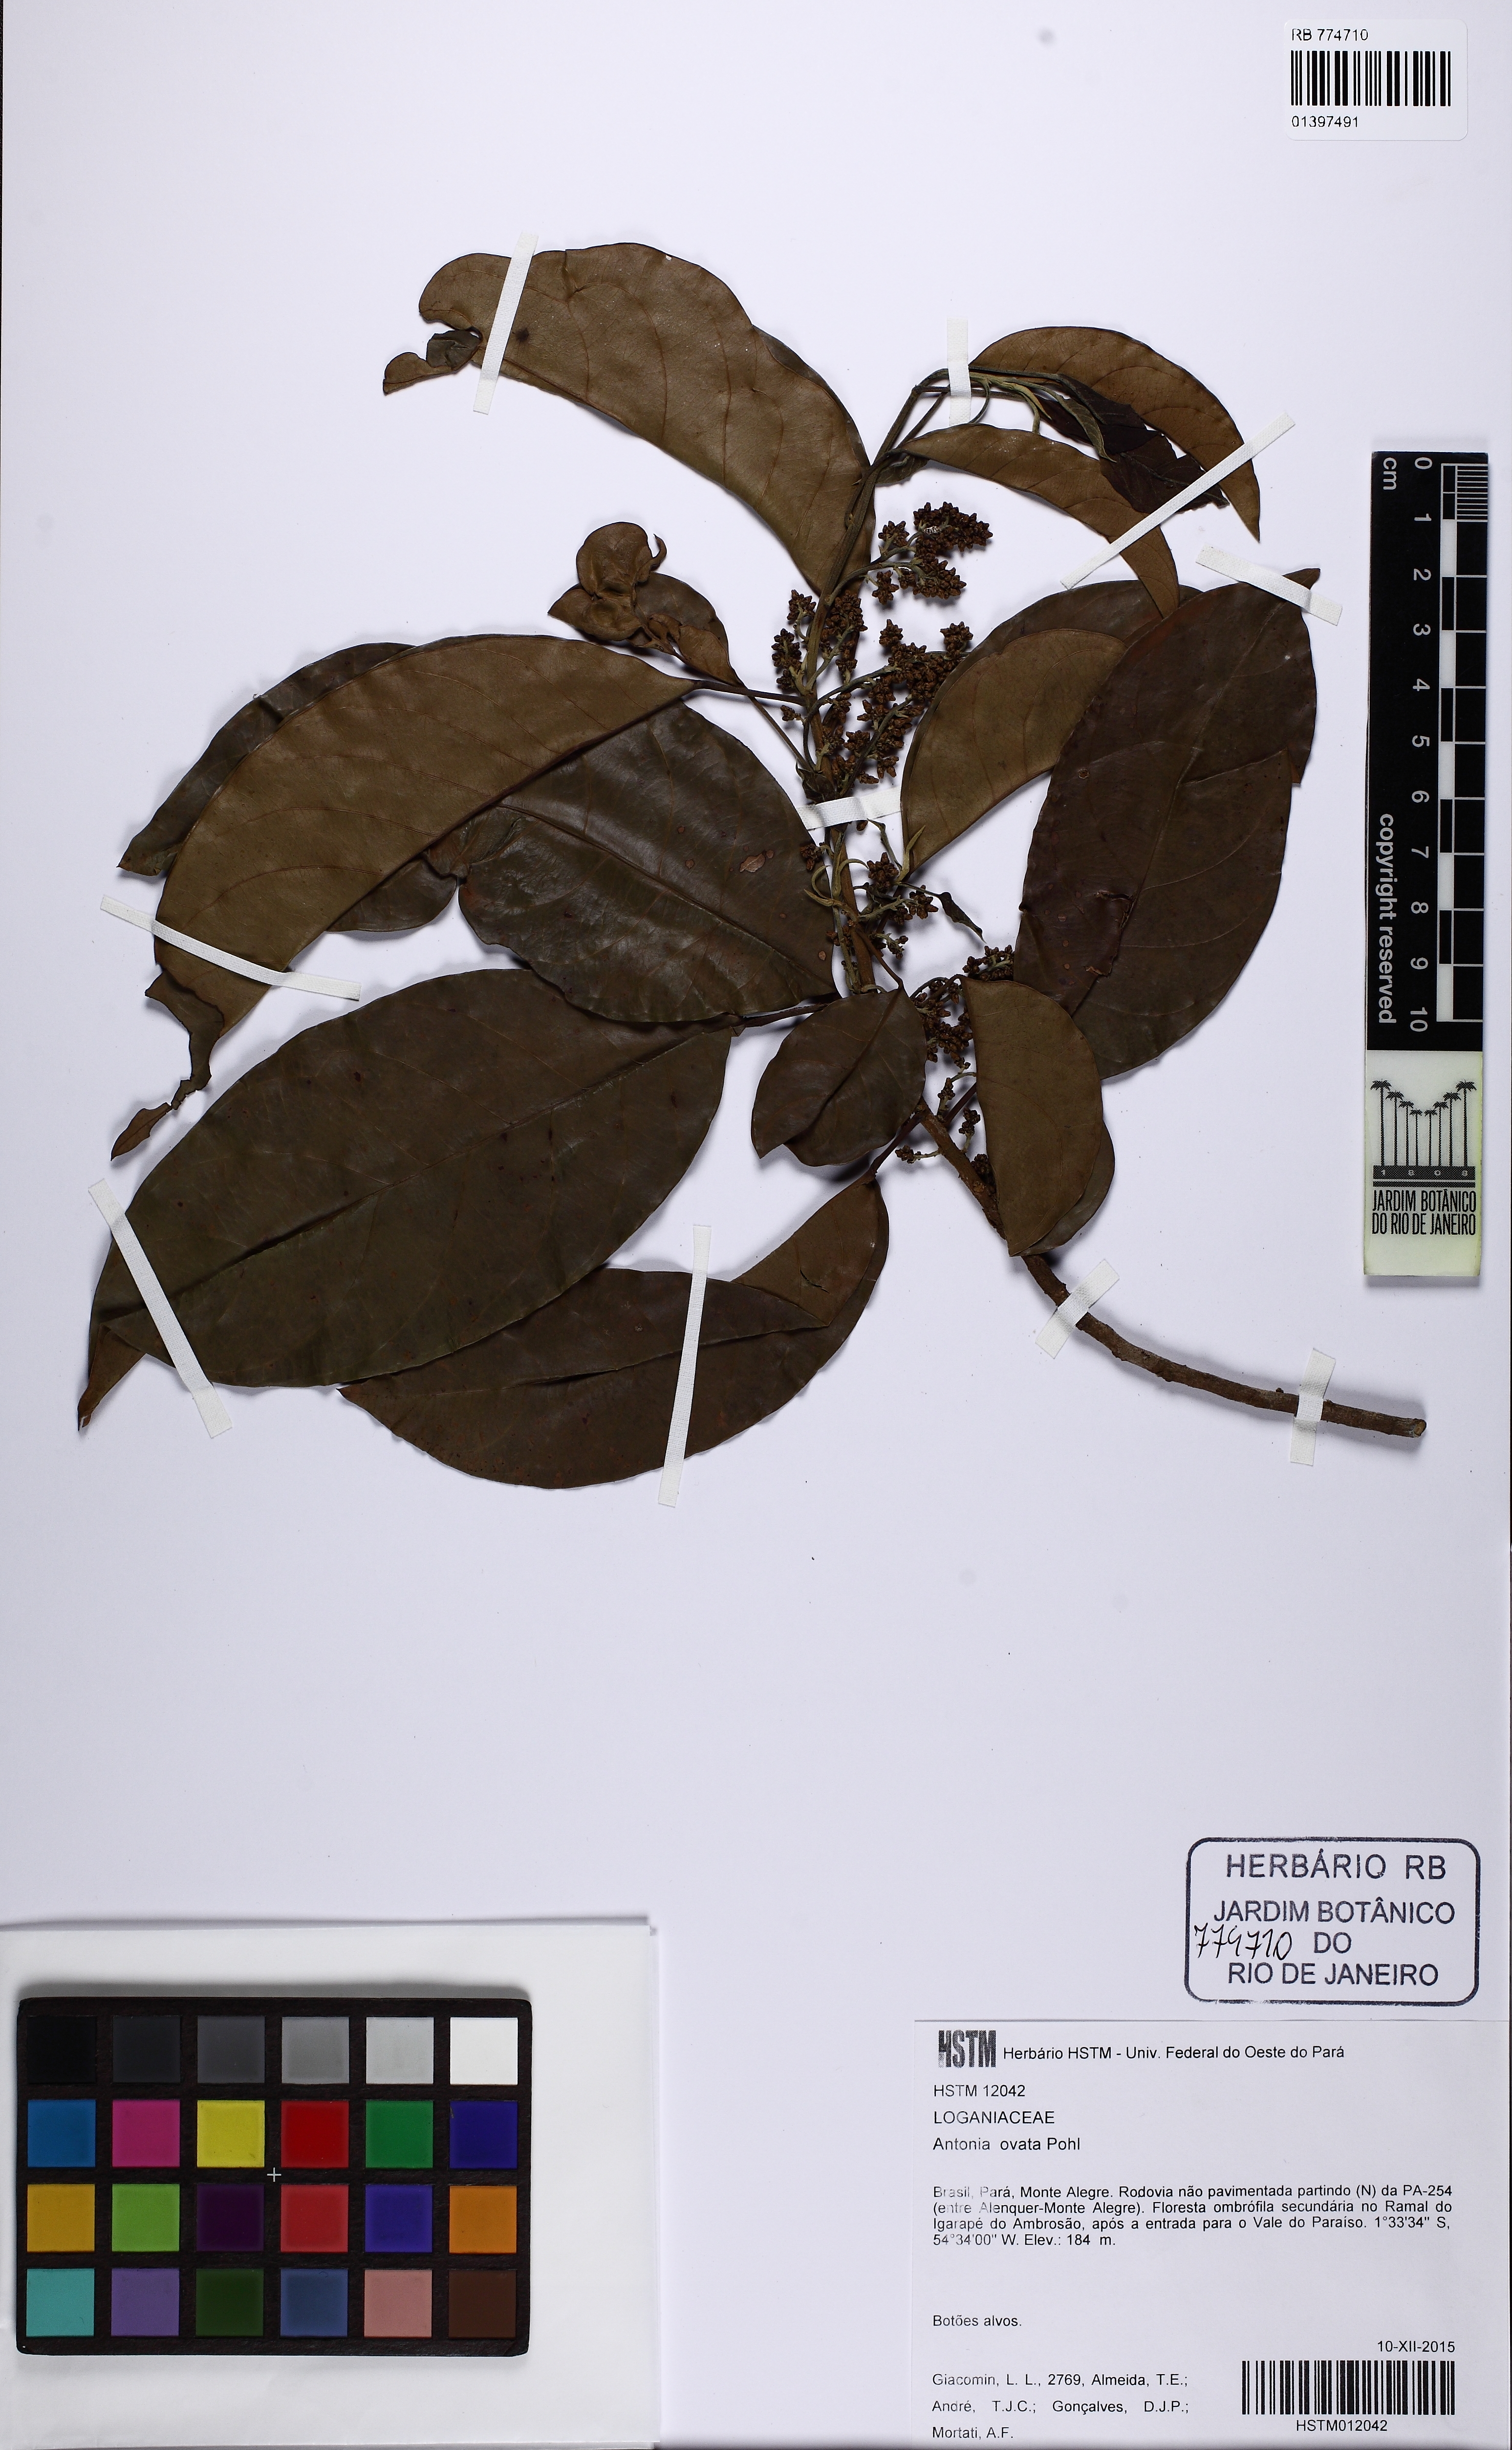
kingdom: Plantae
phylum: Tracheophyta
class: Magnoliopsida
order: Gentianales
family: Loganiaceae
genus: Antonia
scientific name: Antonia ovata
